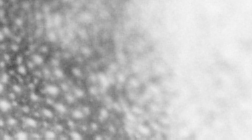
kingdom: Animalia
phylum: Chordata
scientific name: Chordata
